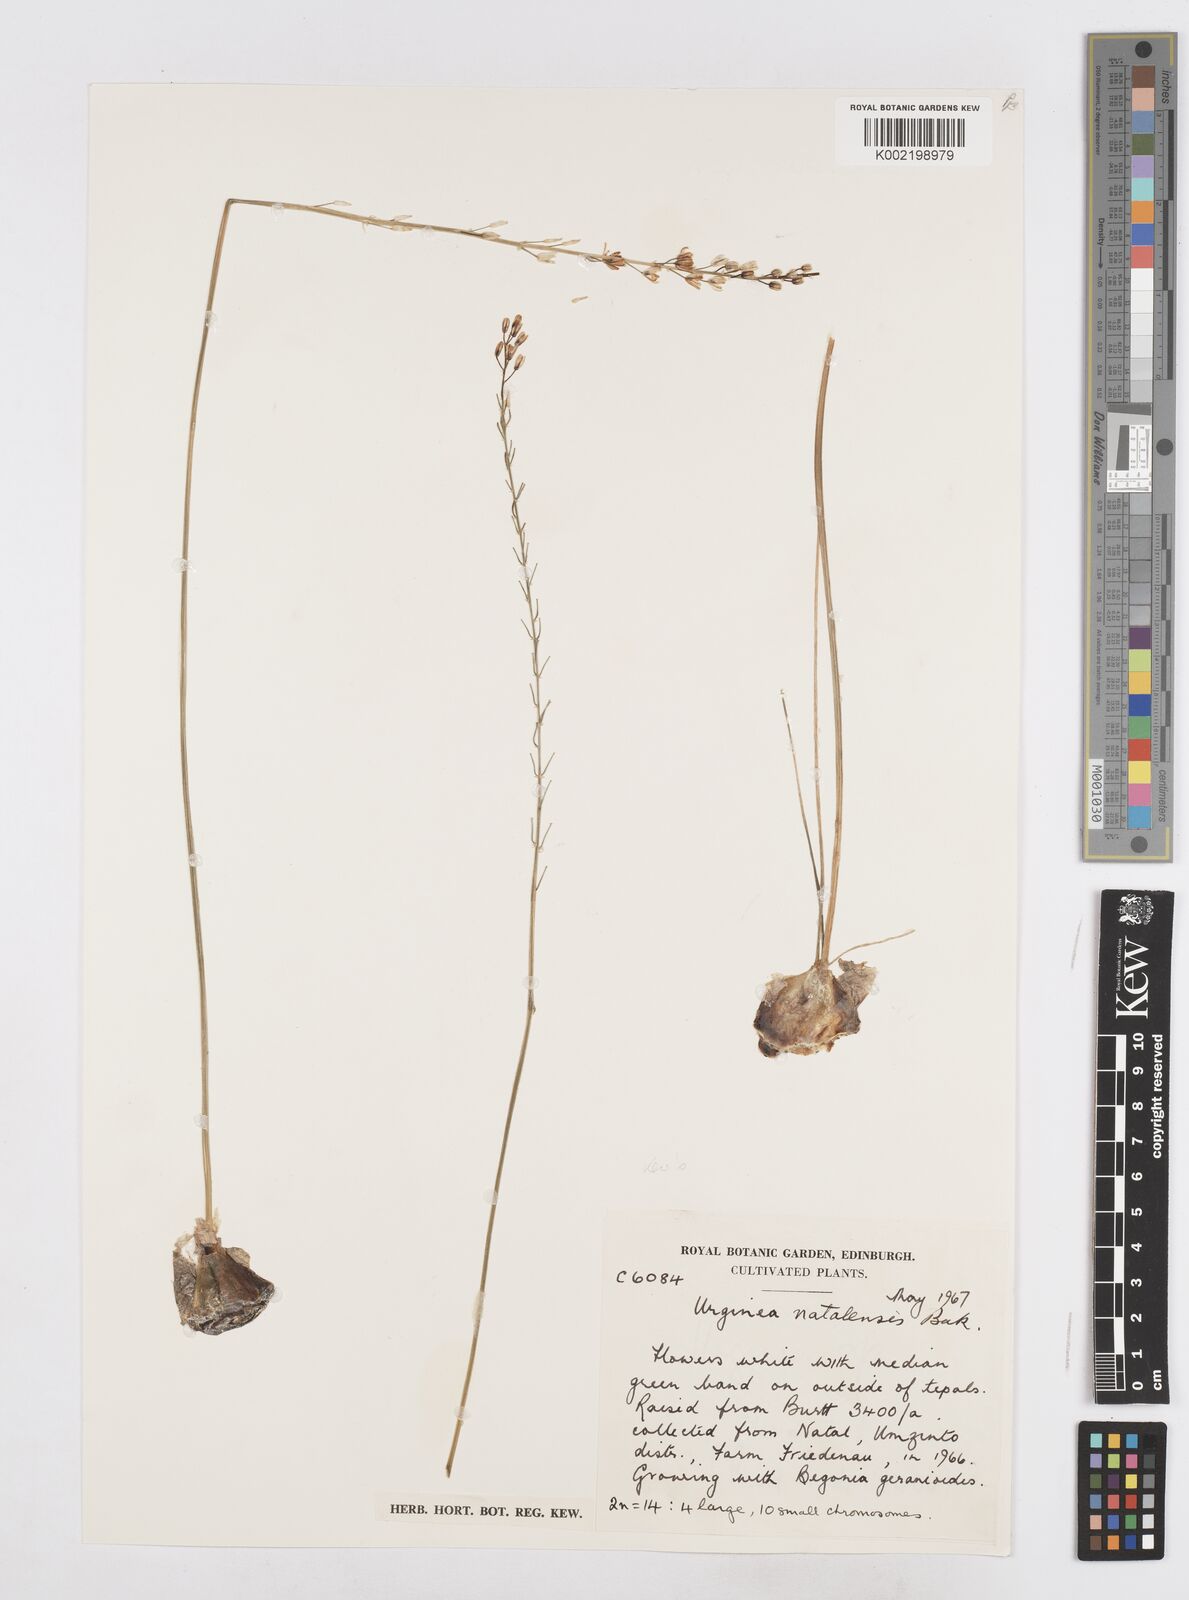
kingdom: Plantae
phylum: Tracheophyta
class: Liliopsida
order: Asparagales
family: Asparagaceae
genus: Drimia
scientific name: Drimia modesta
